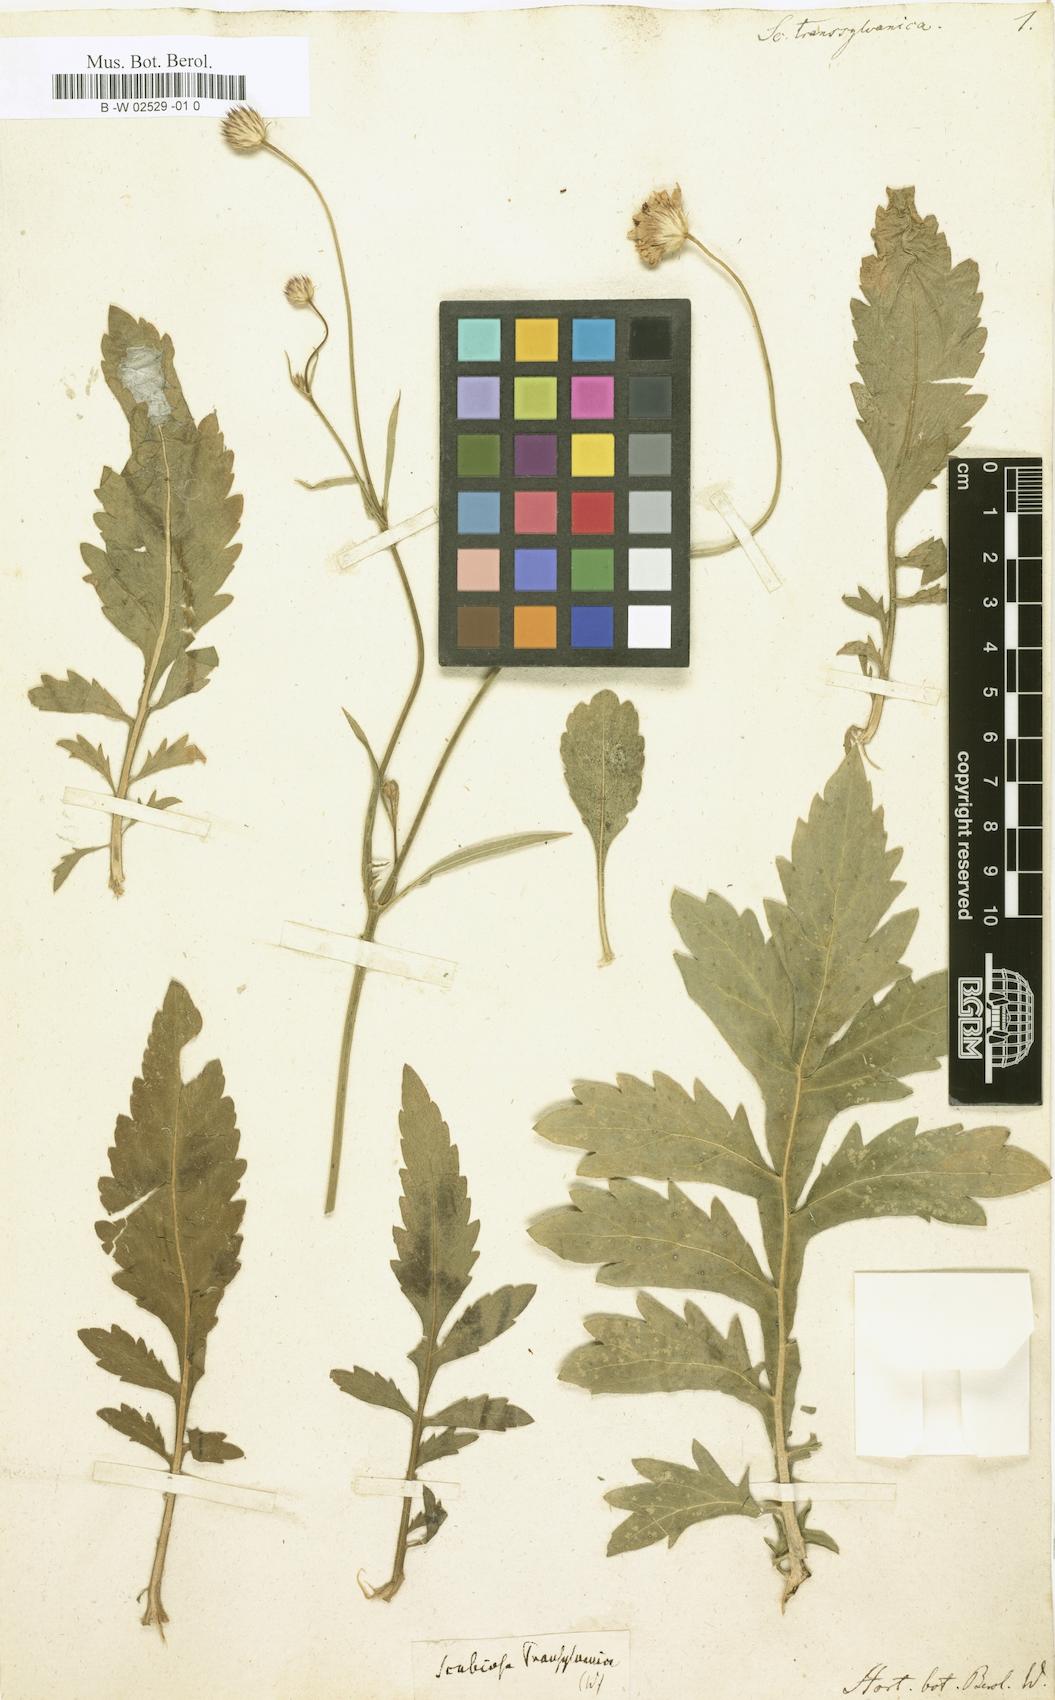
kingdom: Plantae
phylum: Tracheophyta
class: Magnoliopsida
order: Dipsacales
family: Caprifoliaceae
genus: Cephalaria
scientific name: Cephalaria
